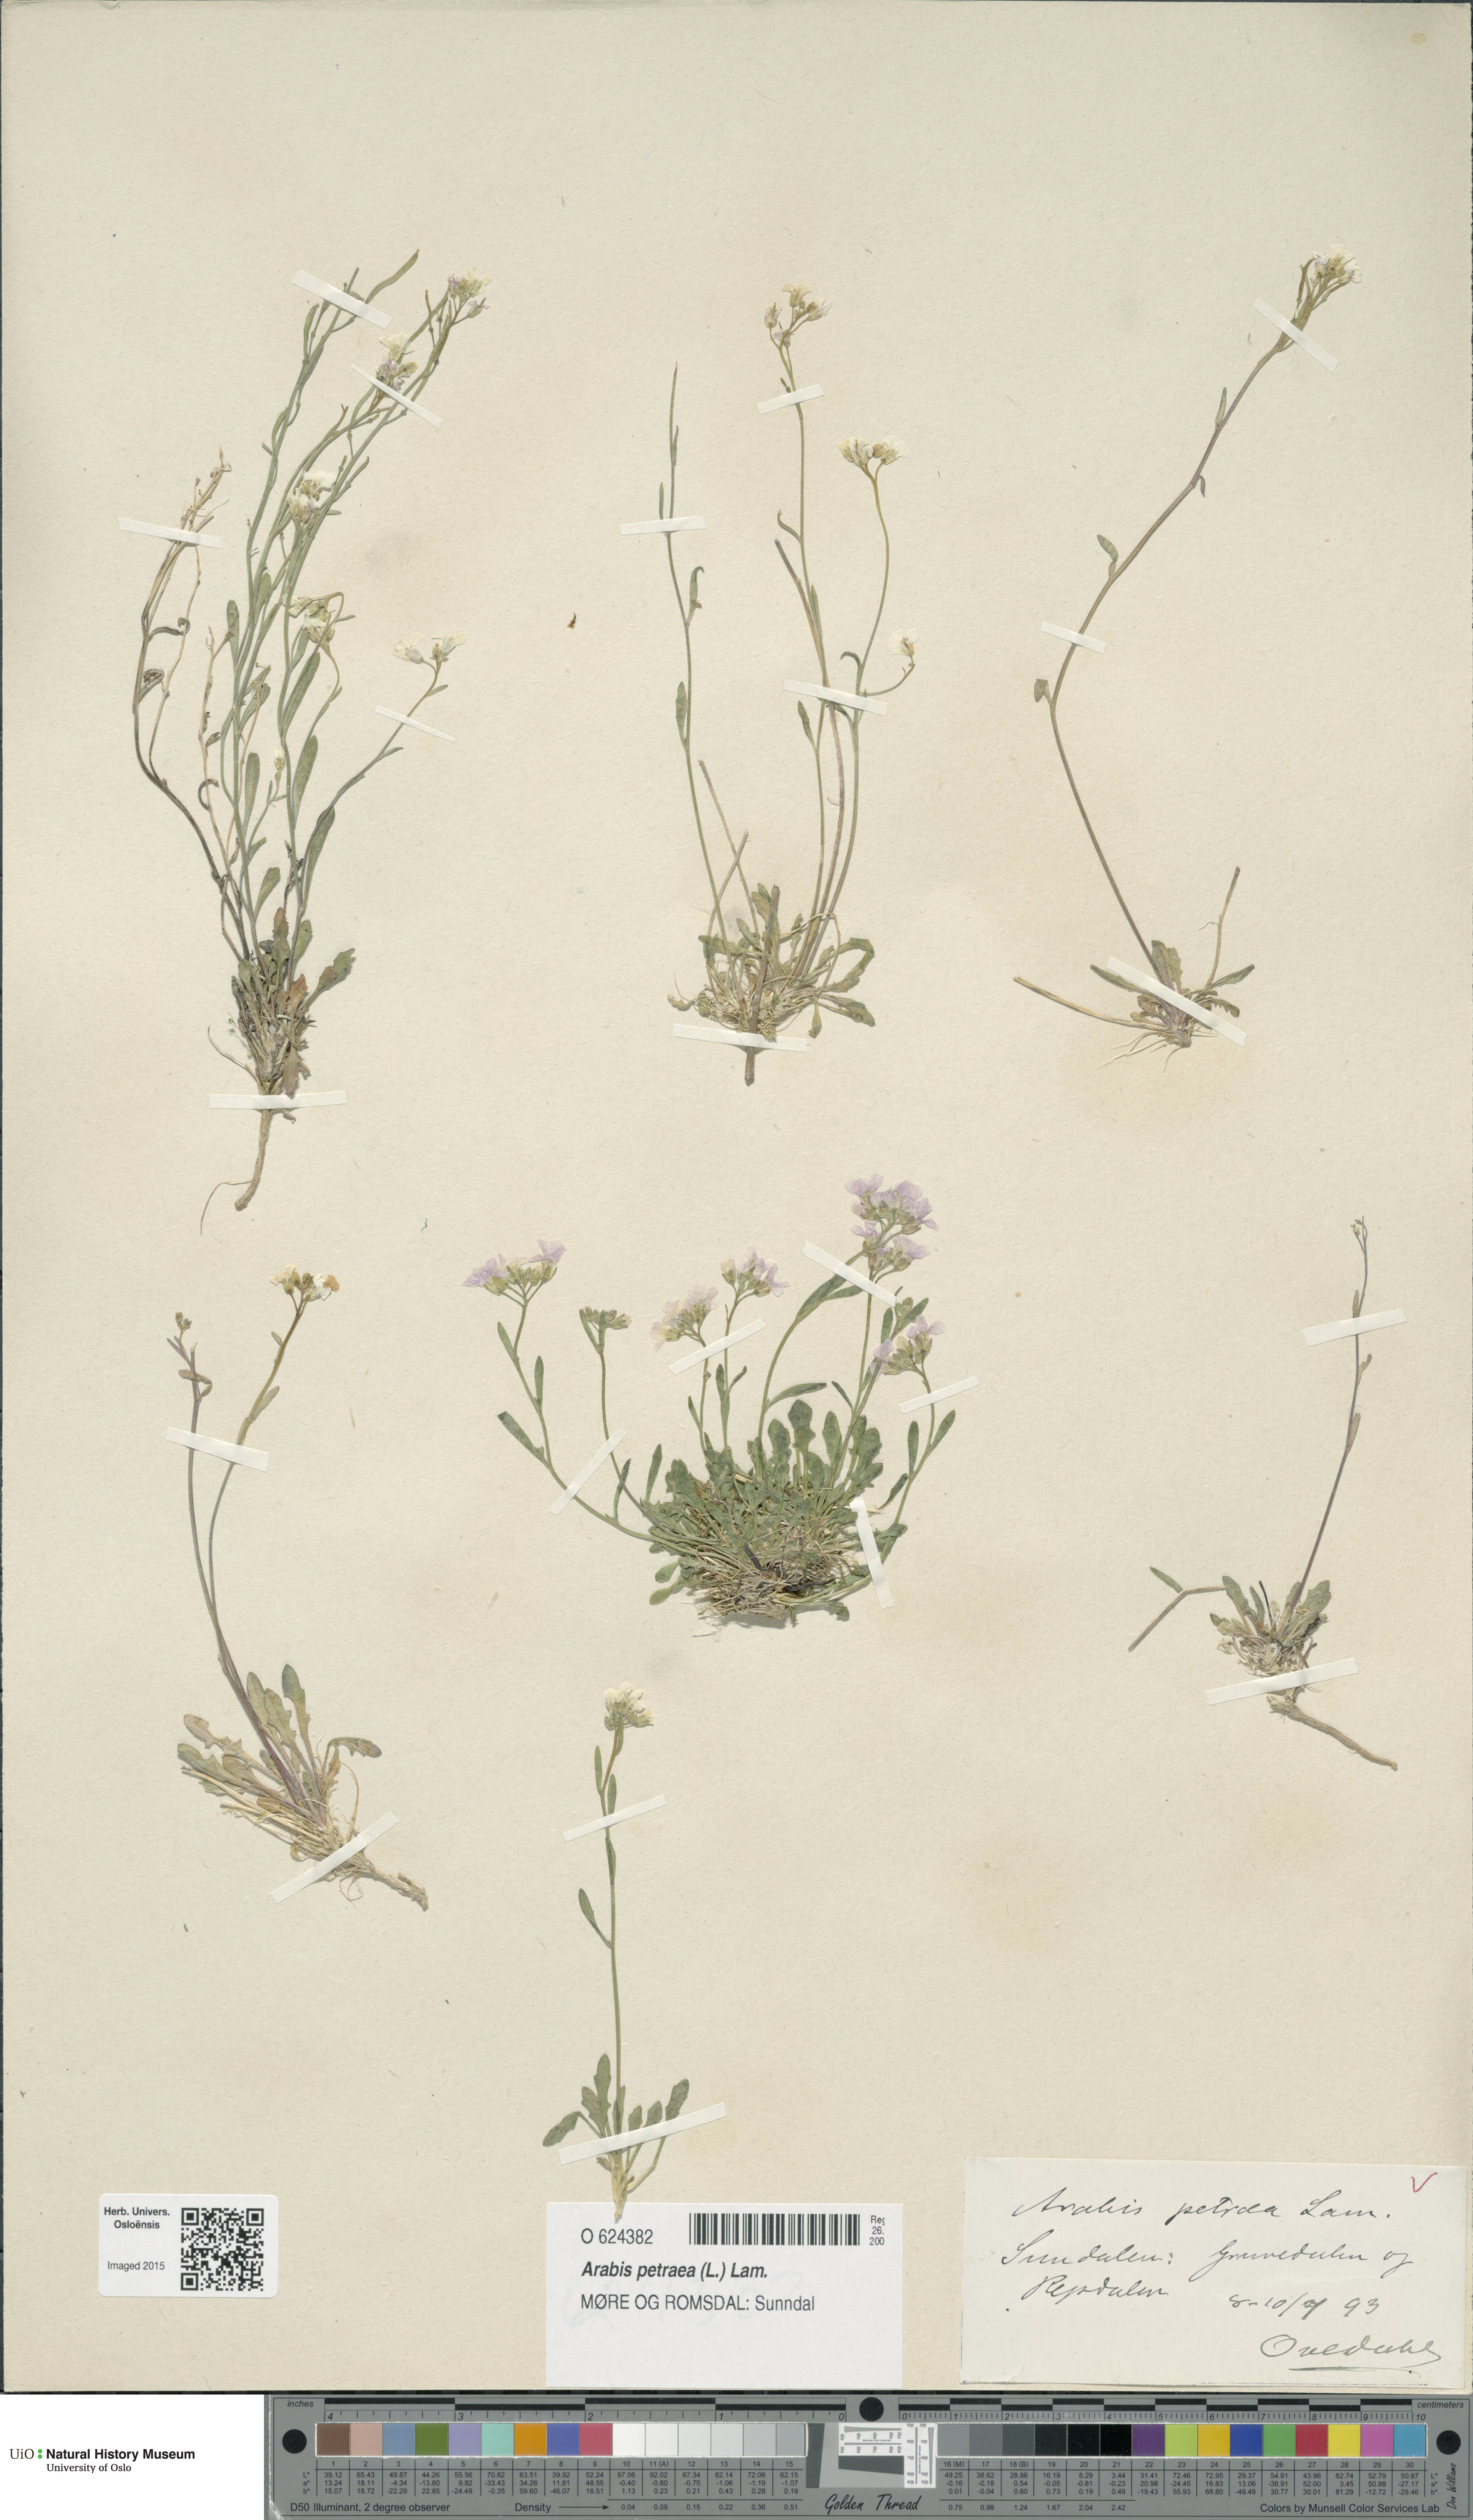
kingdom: Plantae
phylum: Tracheophyta
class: Magnoliopsida
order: Brassicales
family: Brassicaceae
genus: Arabidopsis
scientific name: Arabidopsis petraea
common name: Northern rock-cress
